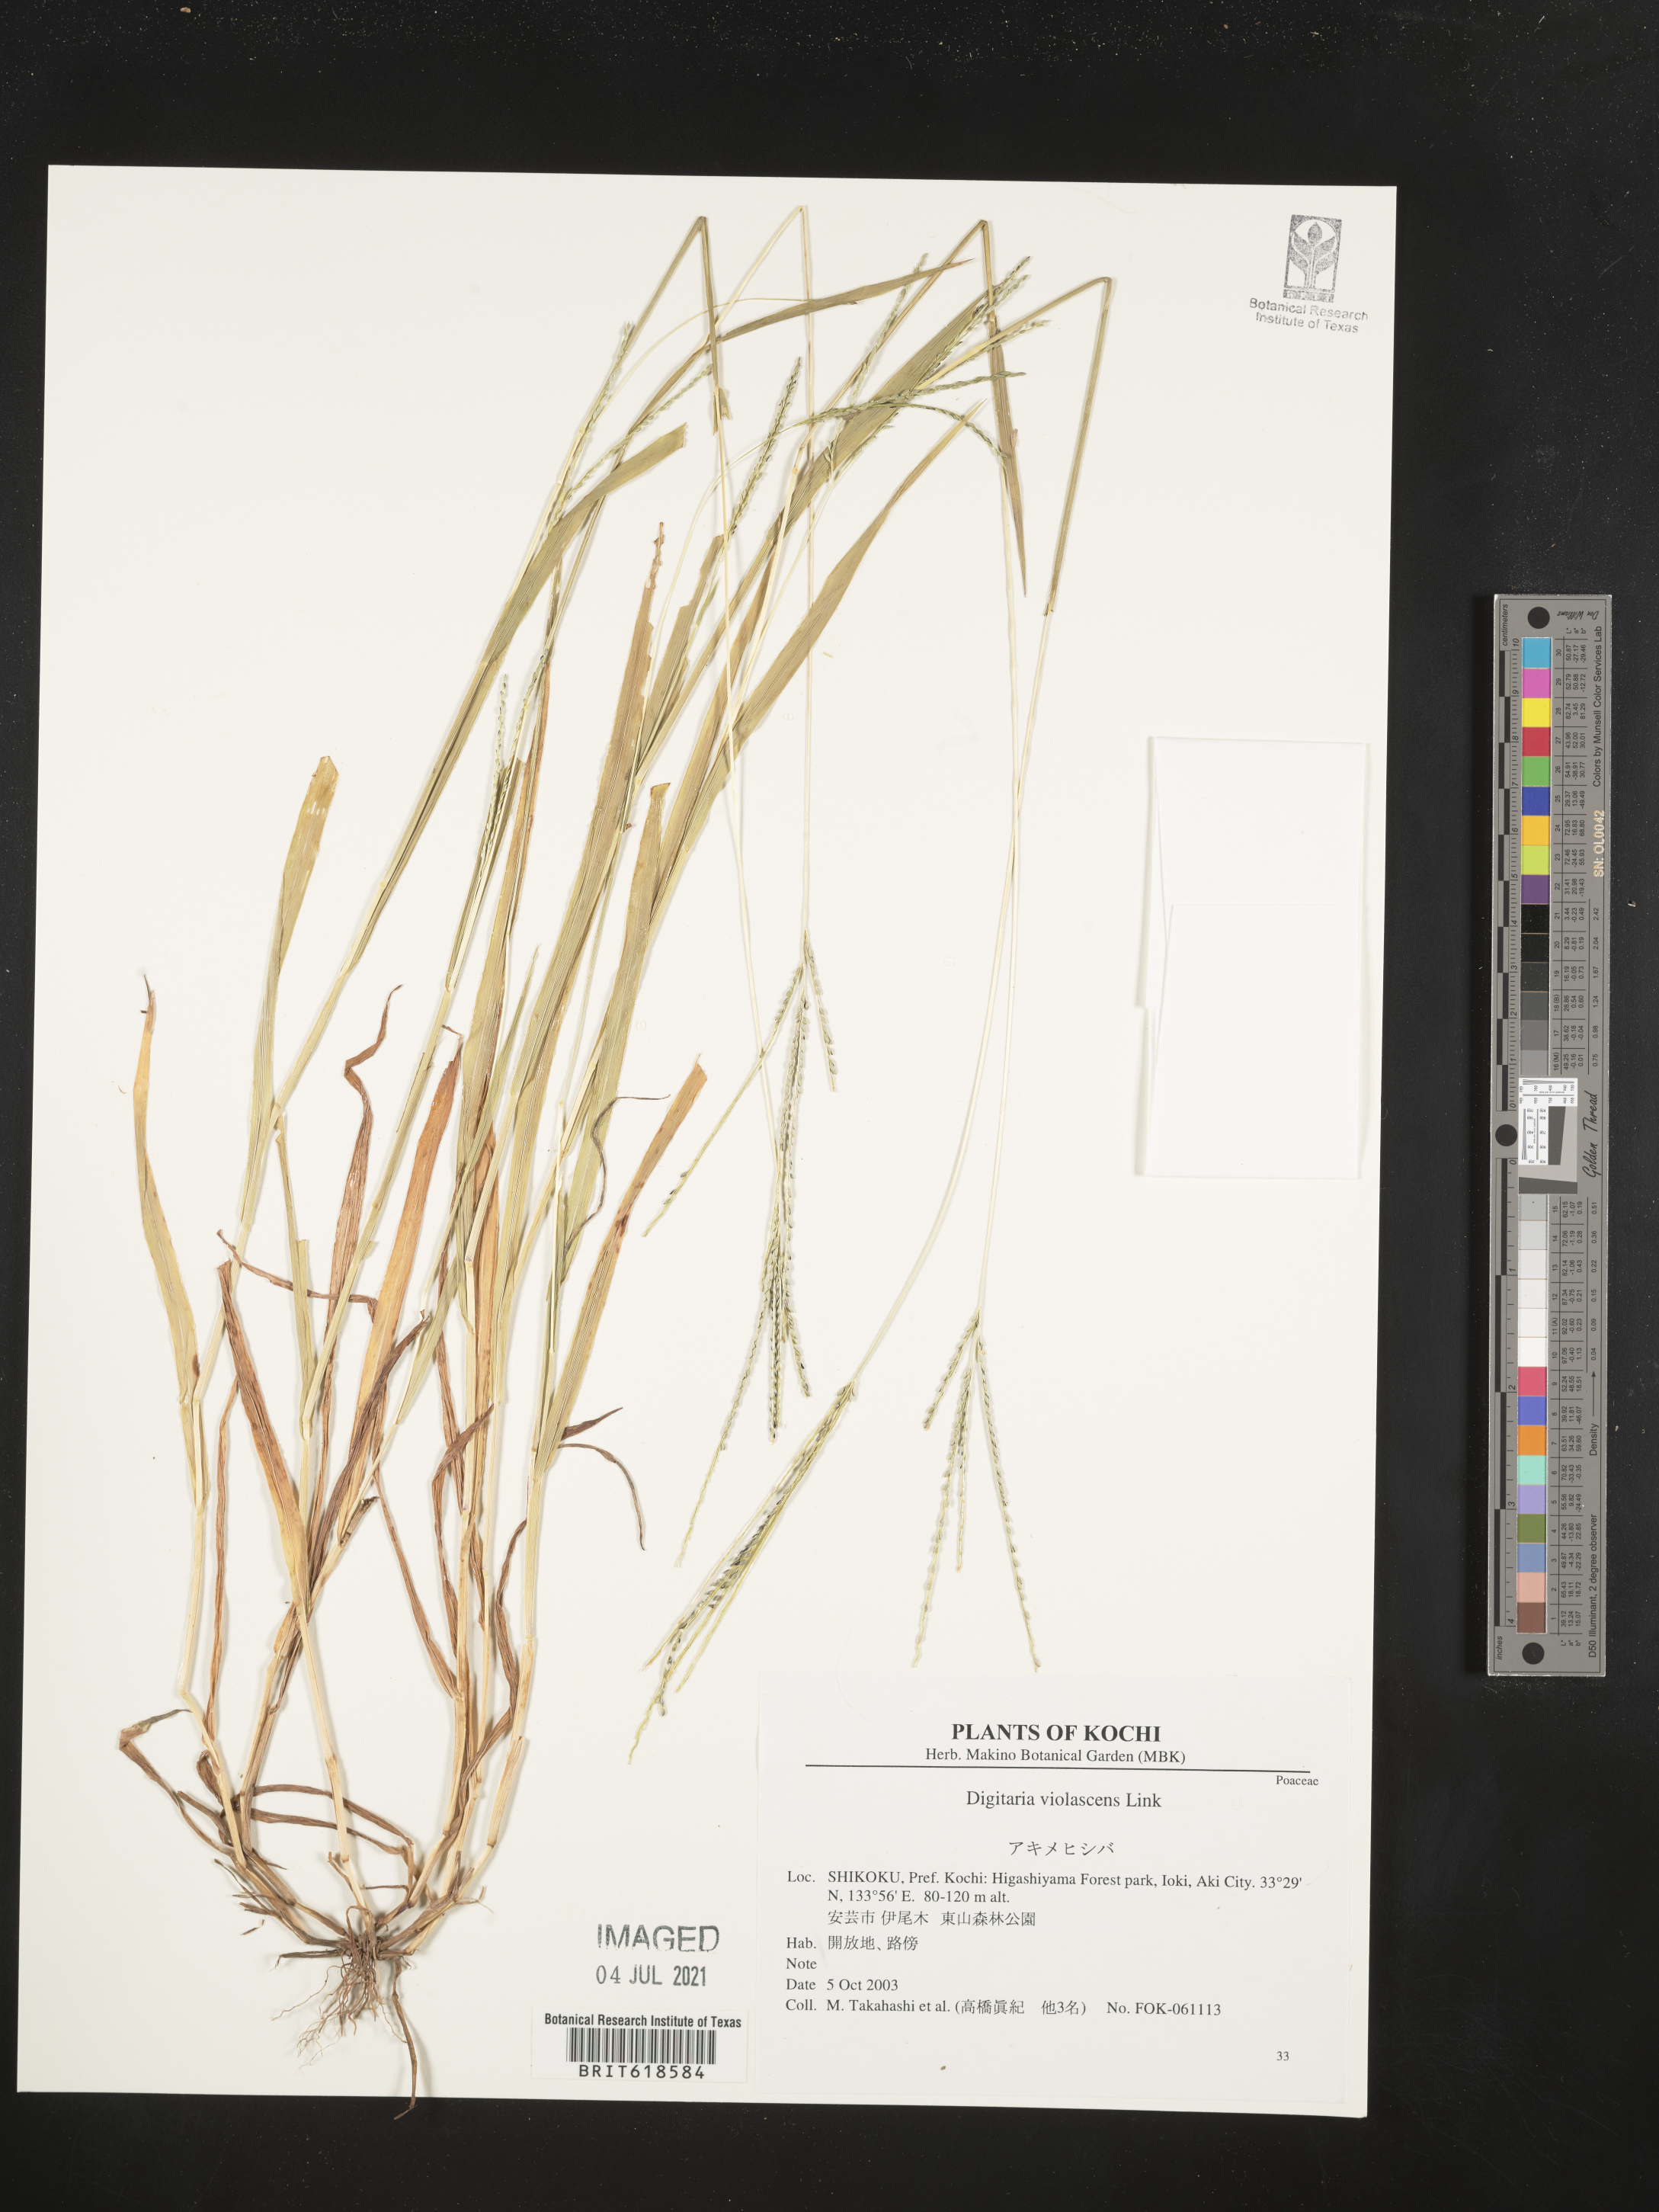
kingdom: Plantae
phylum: Tracheophyta
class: Liliopsida
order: Poales
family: Poaceae
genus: Digitaria
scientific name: Digitaria violascens
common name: Violet crabgrass
